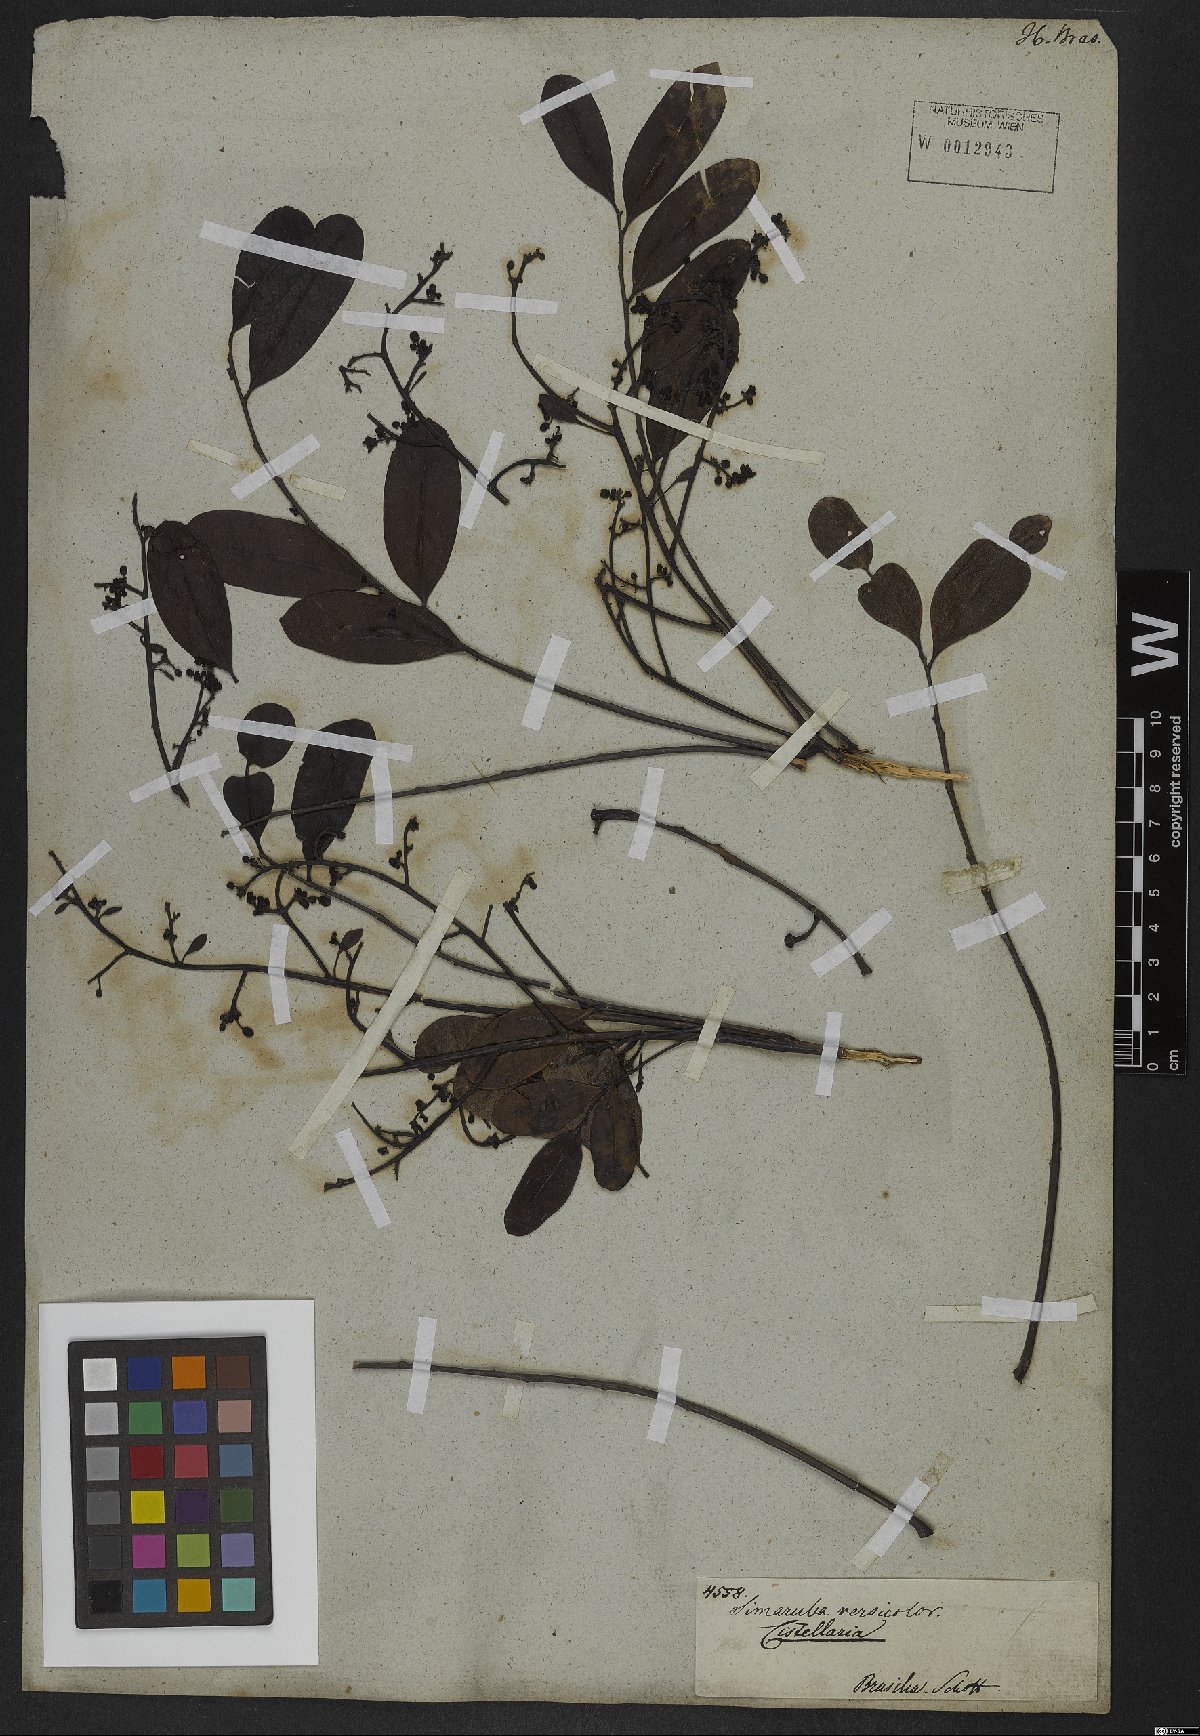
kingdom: Plantae
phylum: Tracheophyta
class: Magnoliopsida
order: Sapindales
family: Simaroubaceae
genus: Simarouba
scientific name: Simarouba versicolor
